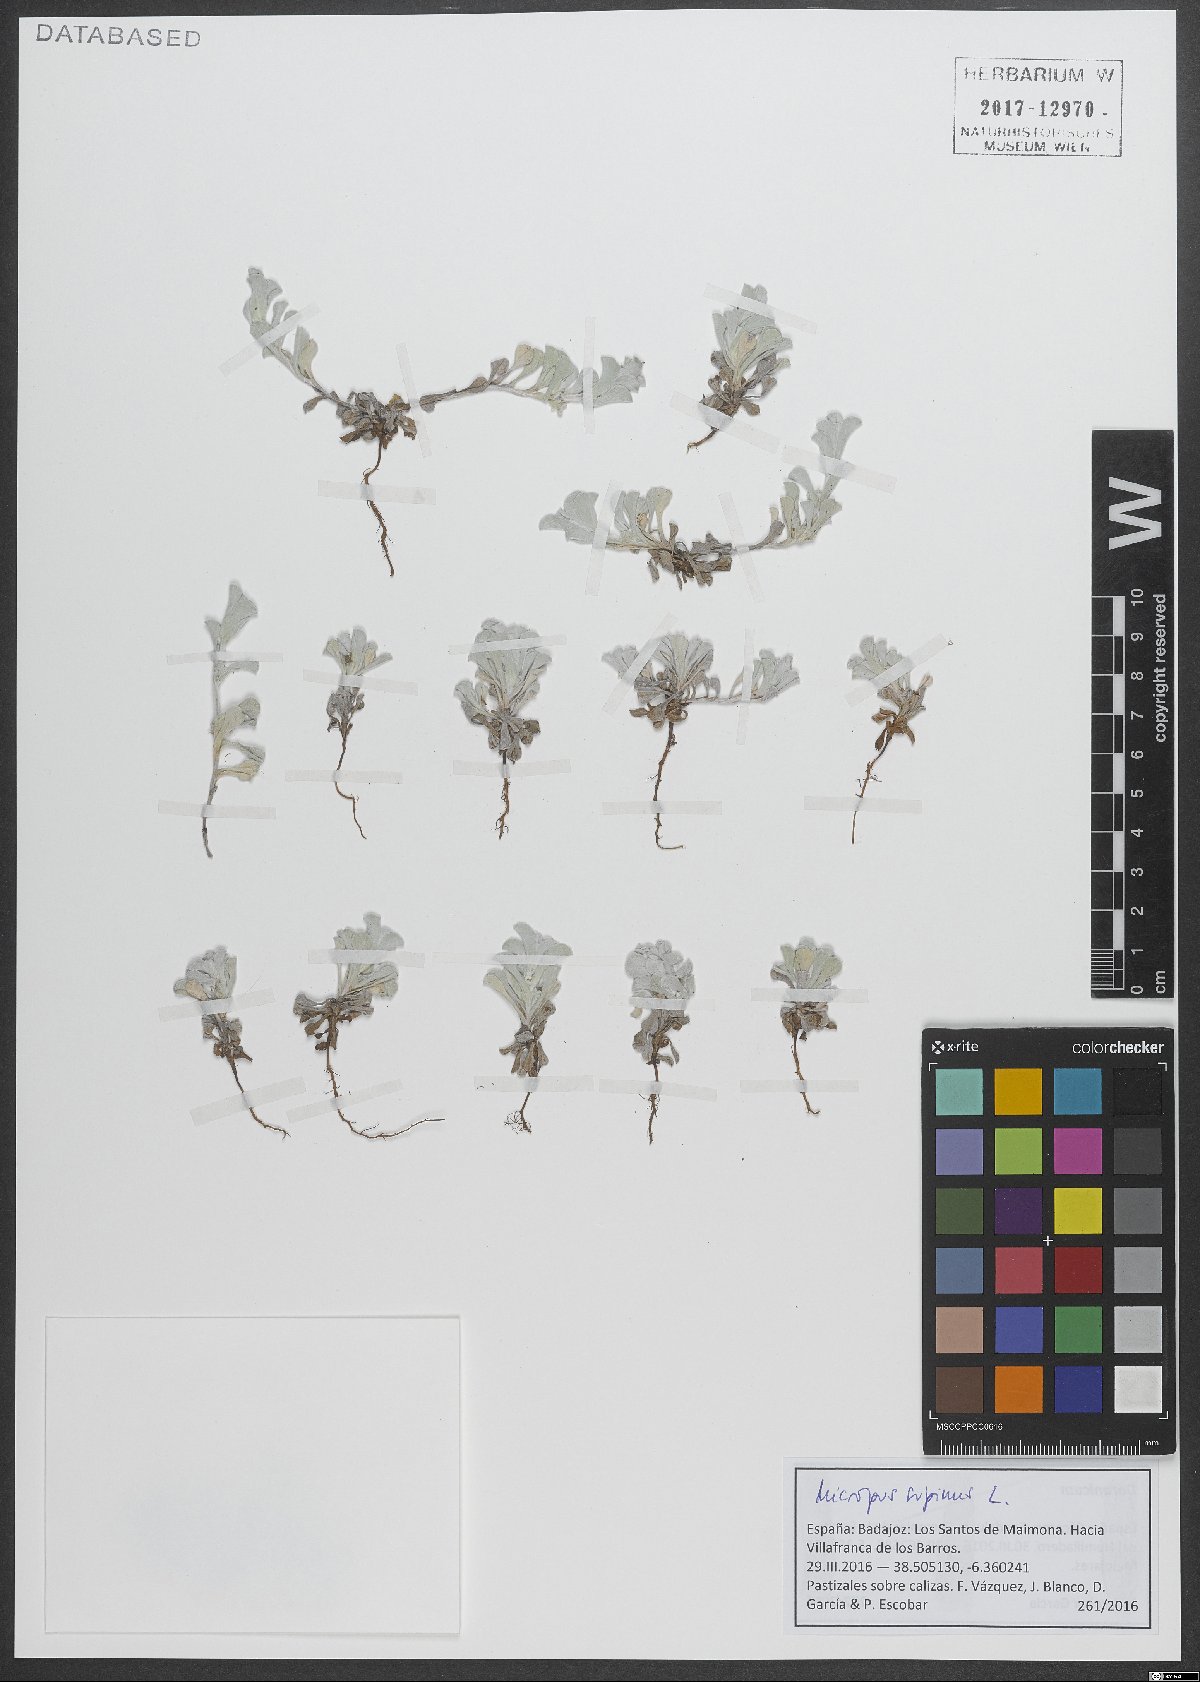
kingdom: Plantae
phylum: Tracheophyta
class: Magnoliopsida
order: Asterales
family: Asteraceae
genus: Micropus
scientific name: Micropus supinus
